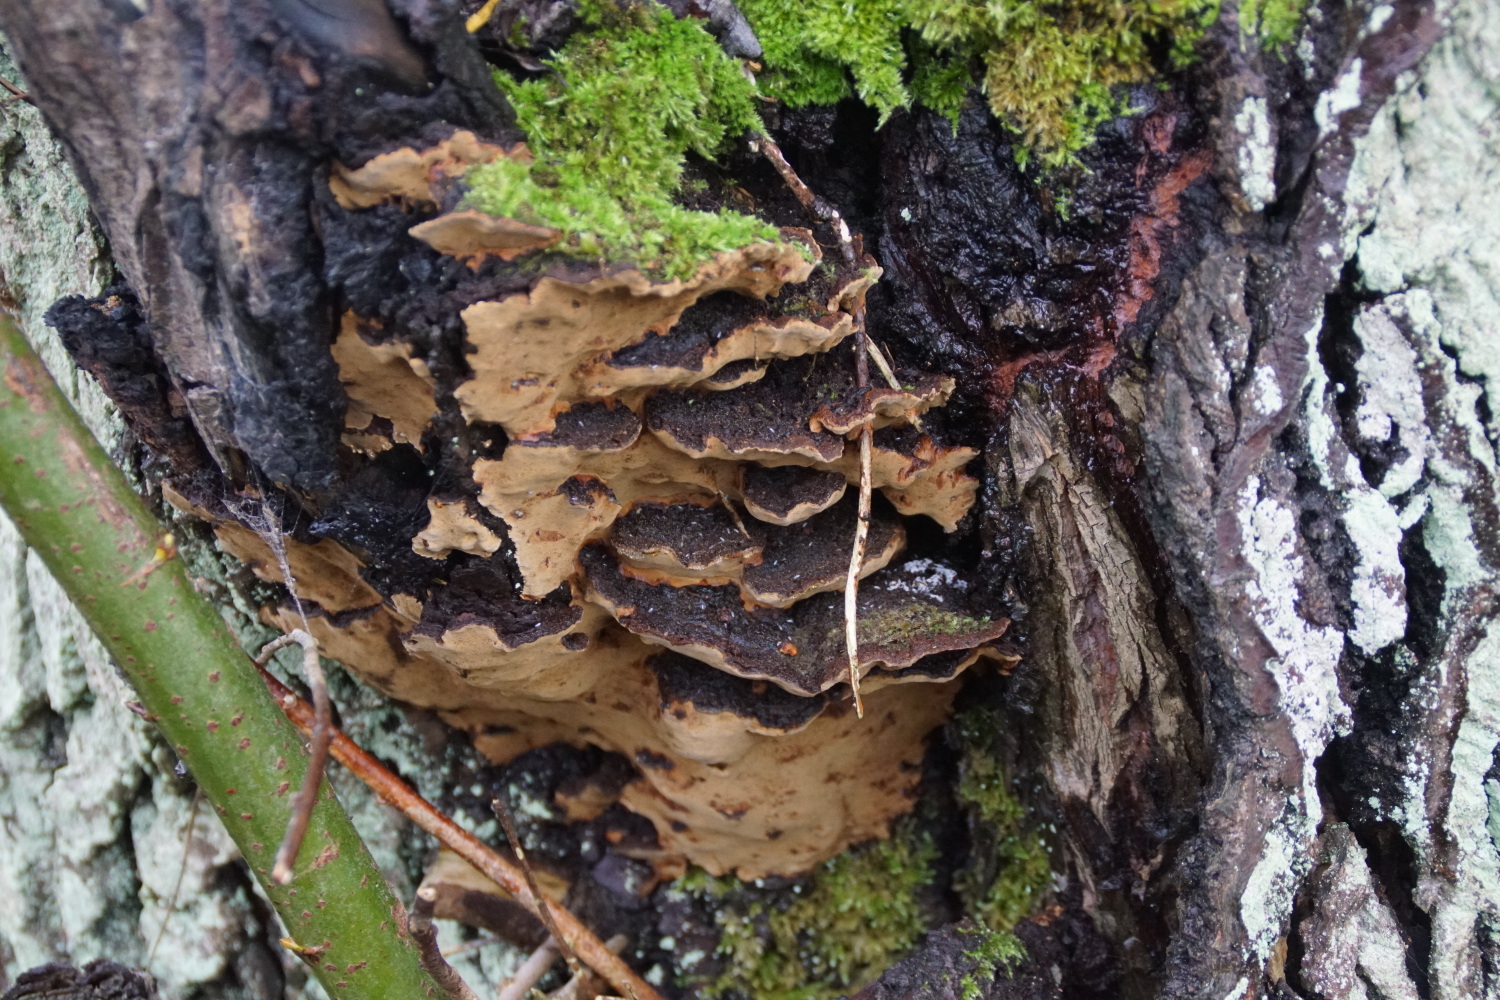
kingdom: Fungi
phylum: Basidiomycota
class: Agaricomycetes
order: Hymenochaetales
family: Hymenochaetaceae
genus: Phellinopsis
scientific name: Phellinopsis conchata
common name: pile-ildporesvamp
